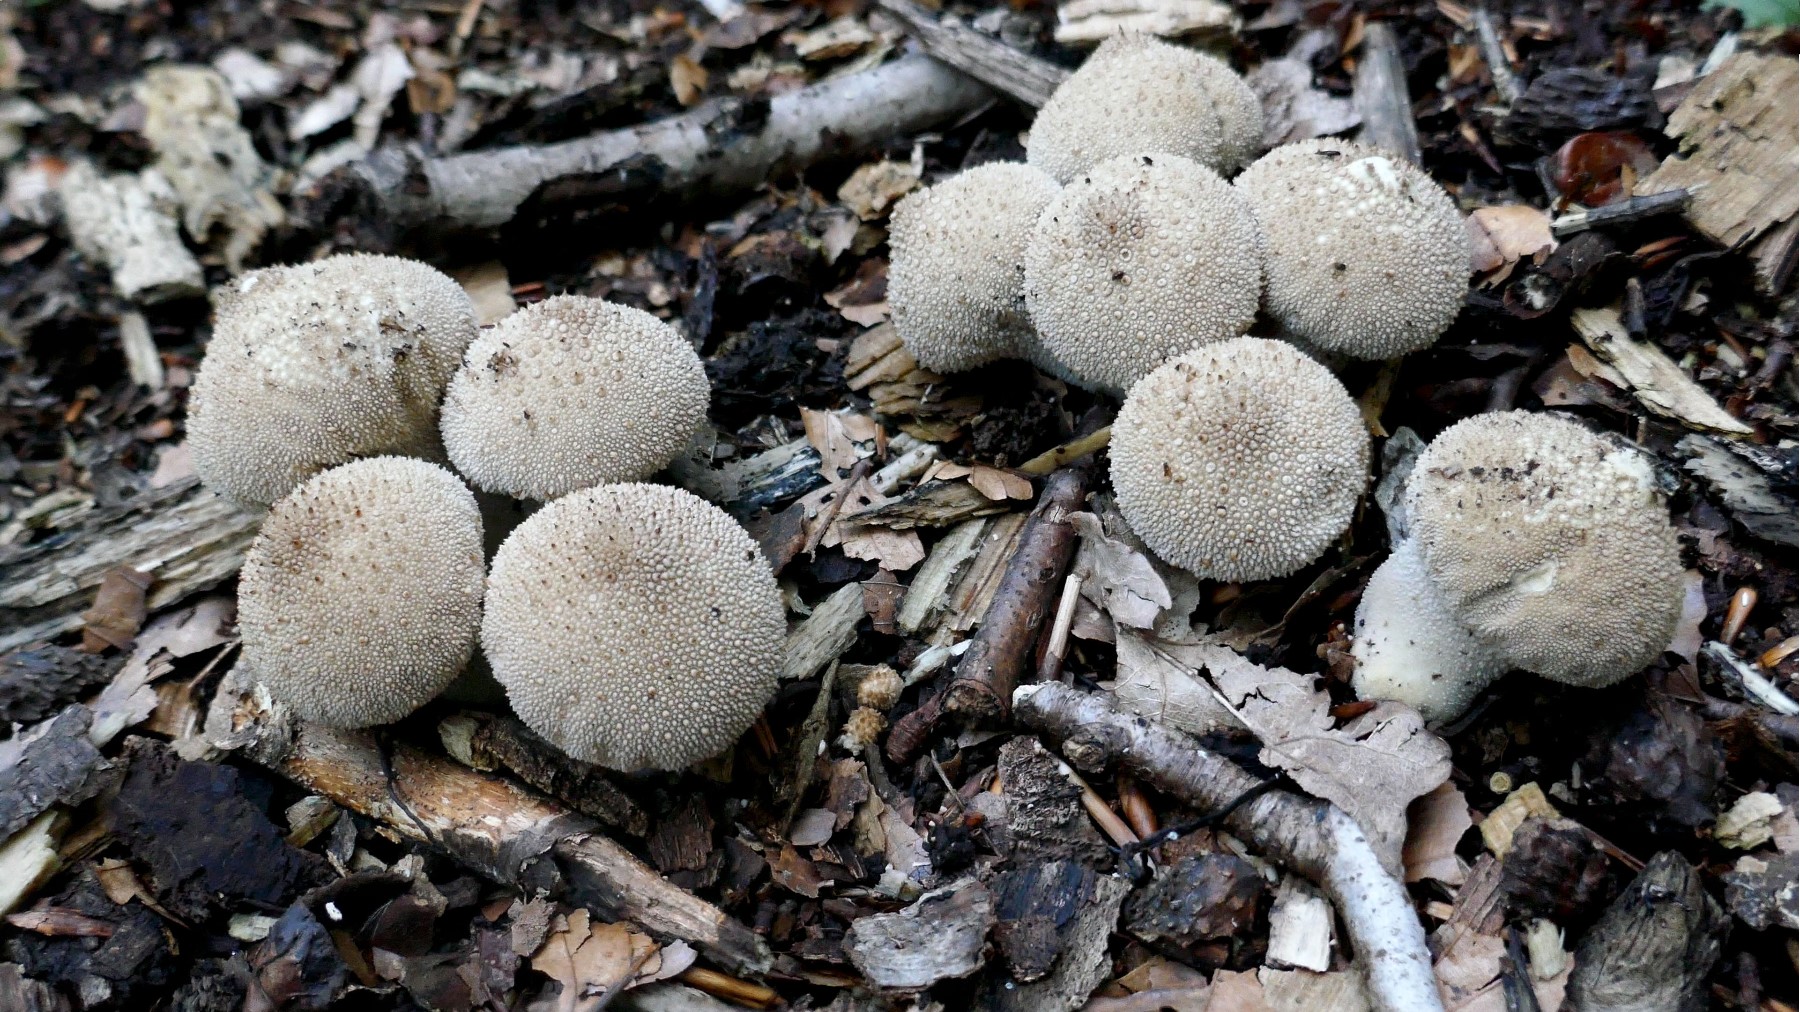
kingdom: Fungi
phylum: Basidiomycota
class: Agaricomycetes
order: Agaricales
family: Lycoperdaceae
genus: Lycoperdon
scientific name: Lycoperdon perlatum
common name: krystal-støvbold
